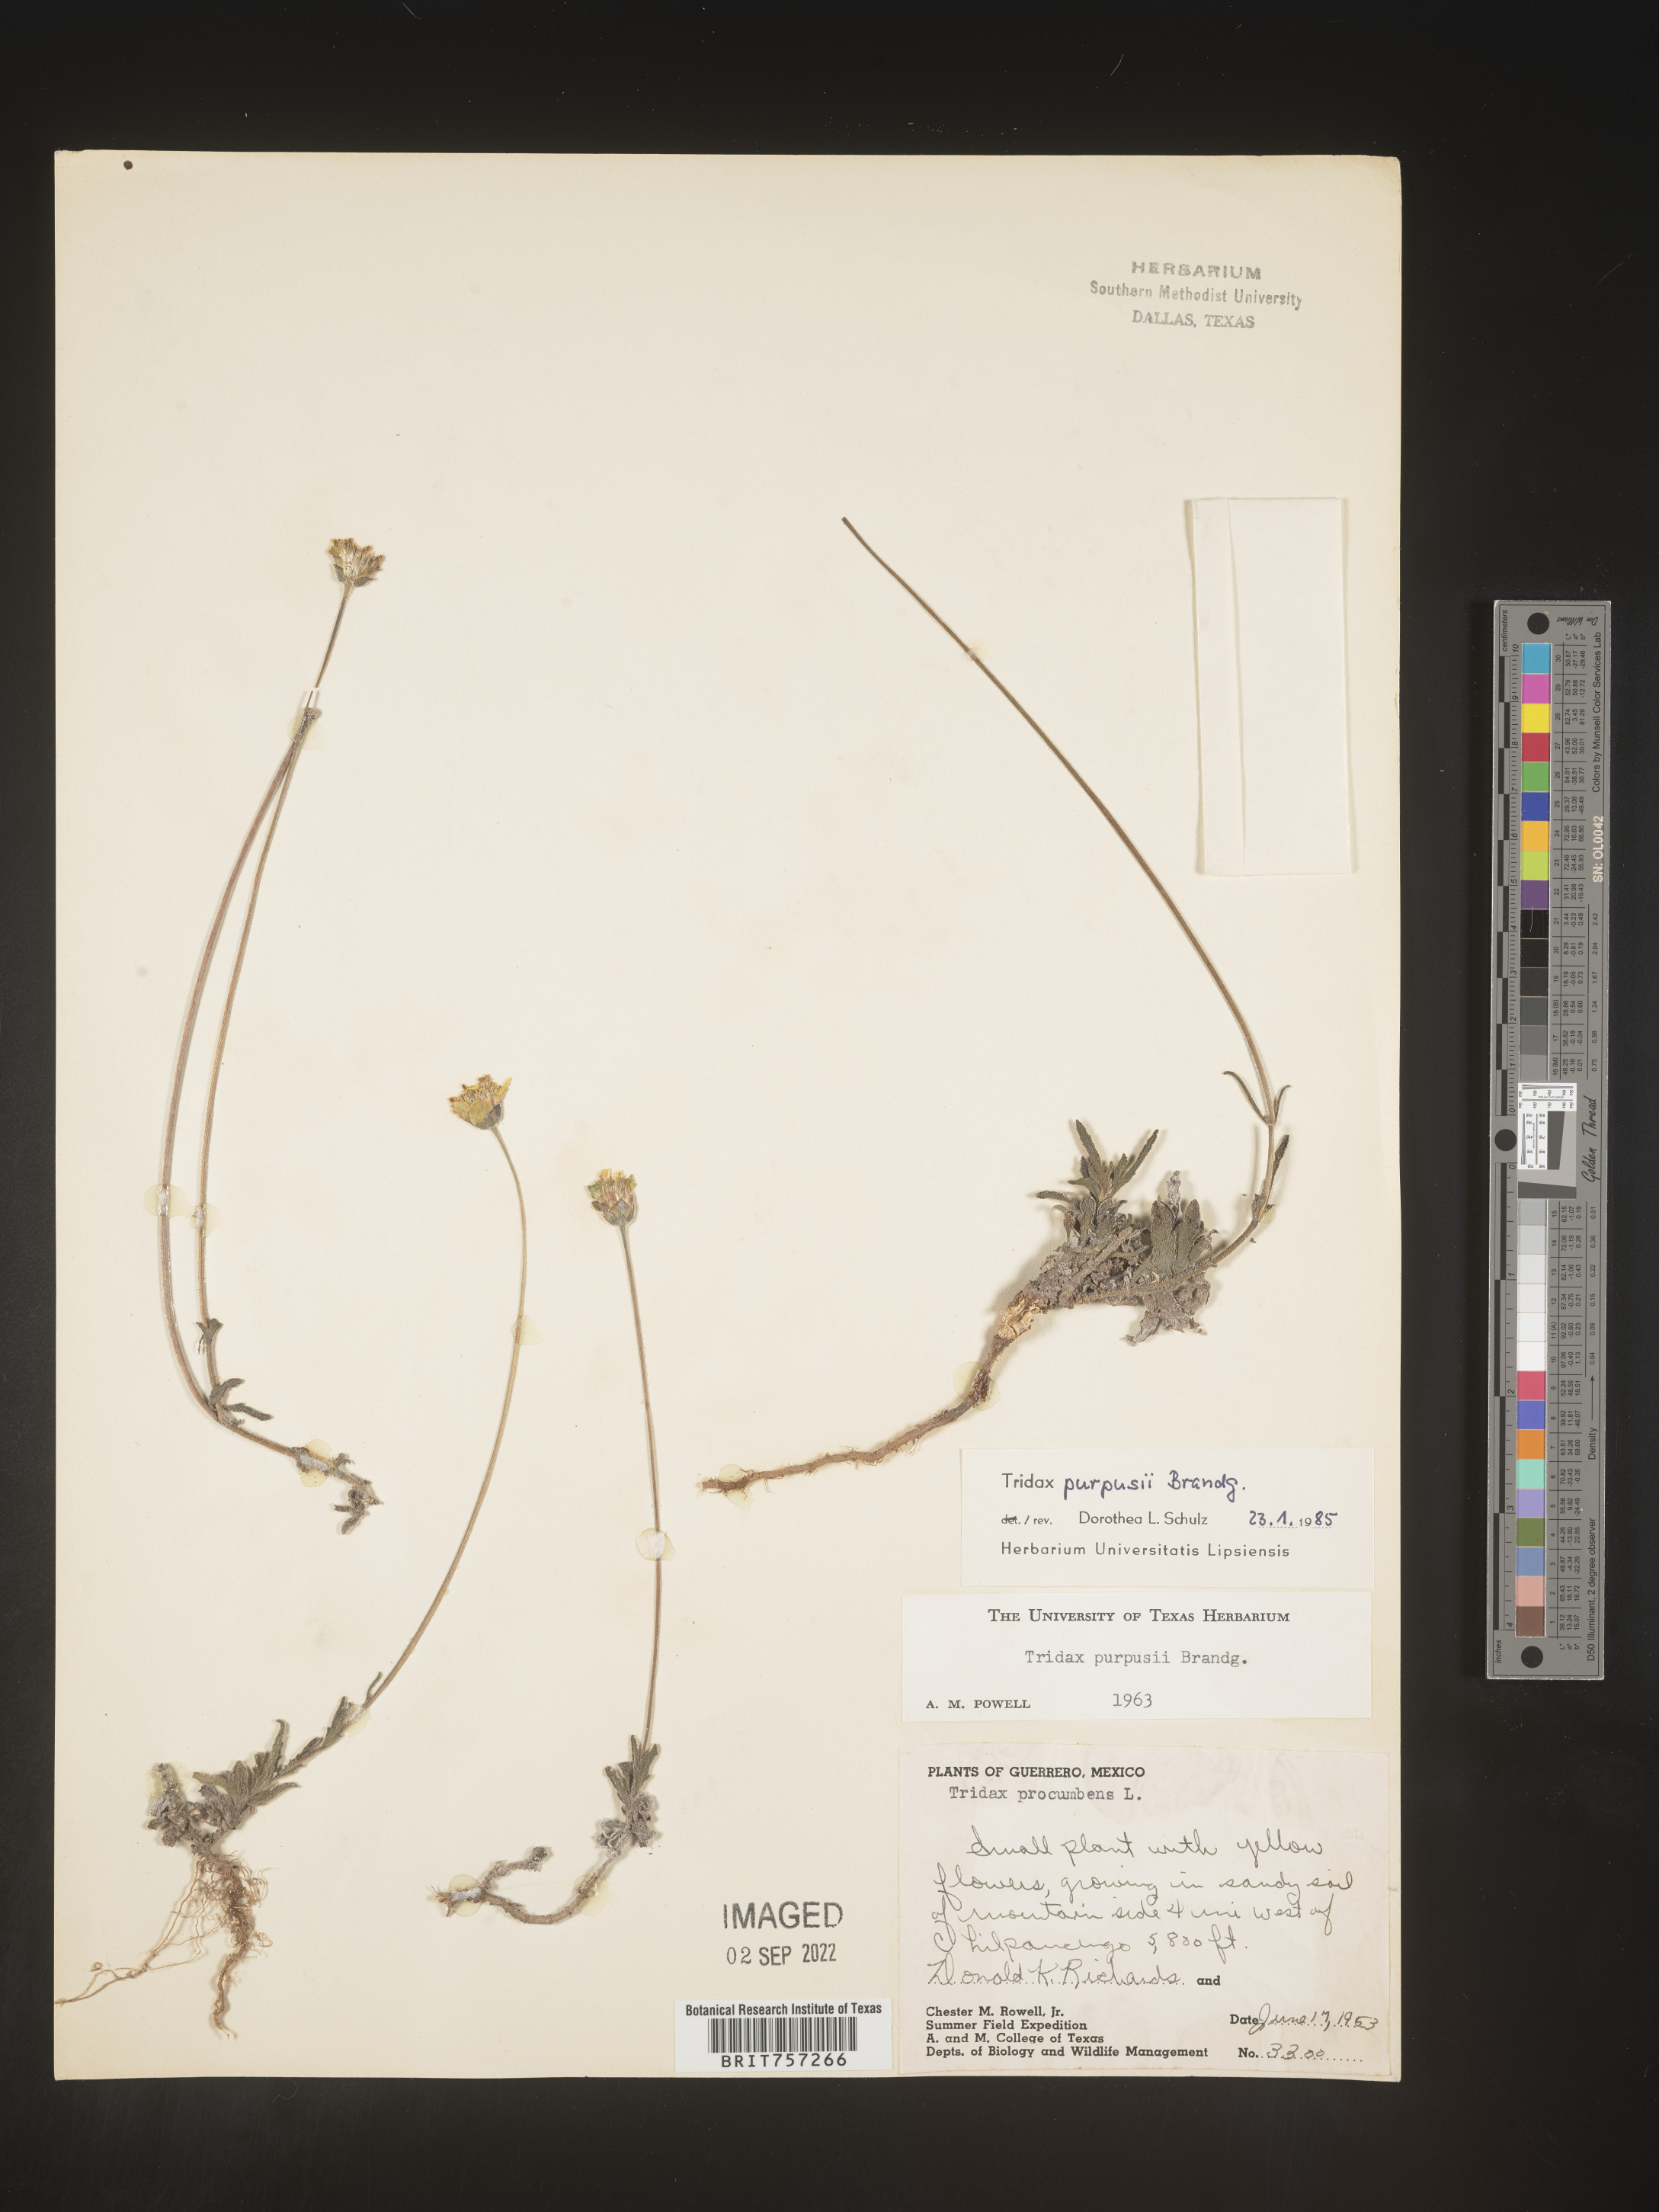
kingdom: Plantae
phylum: Tracheophyta
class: Magnoliopsida
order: Asterales
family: Asteraceae
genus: Tridax
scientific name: Tridax
